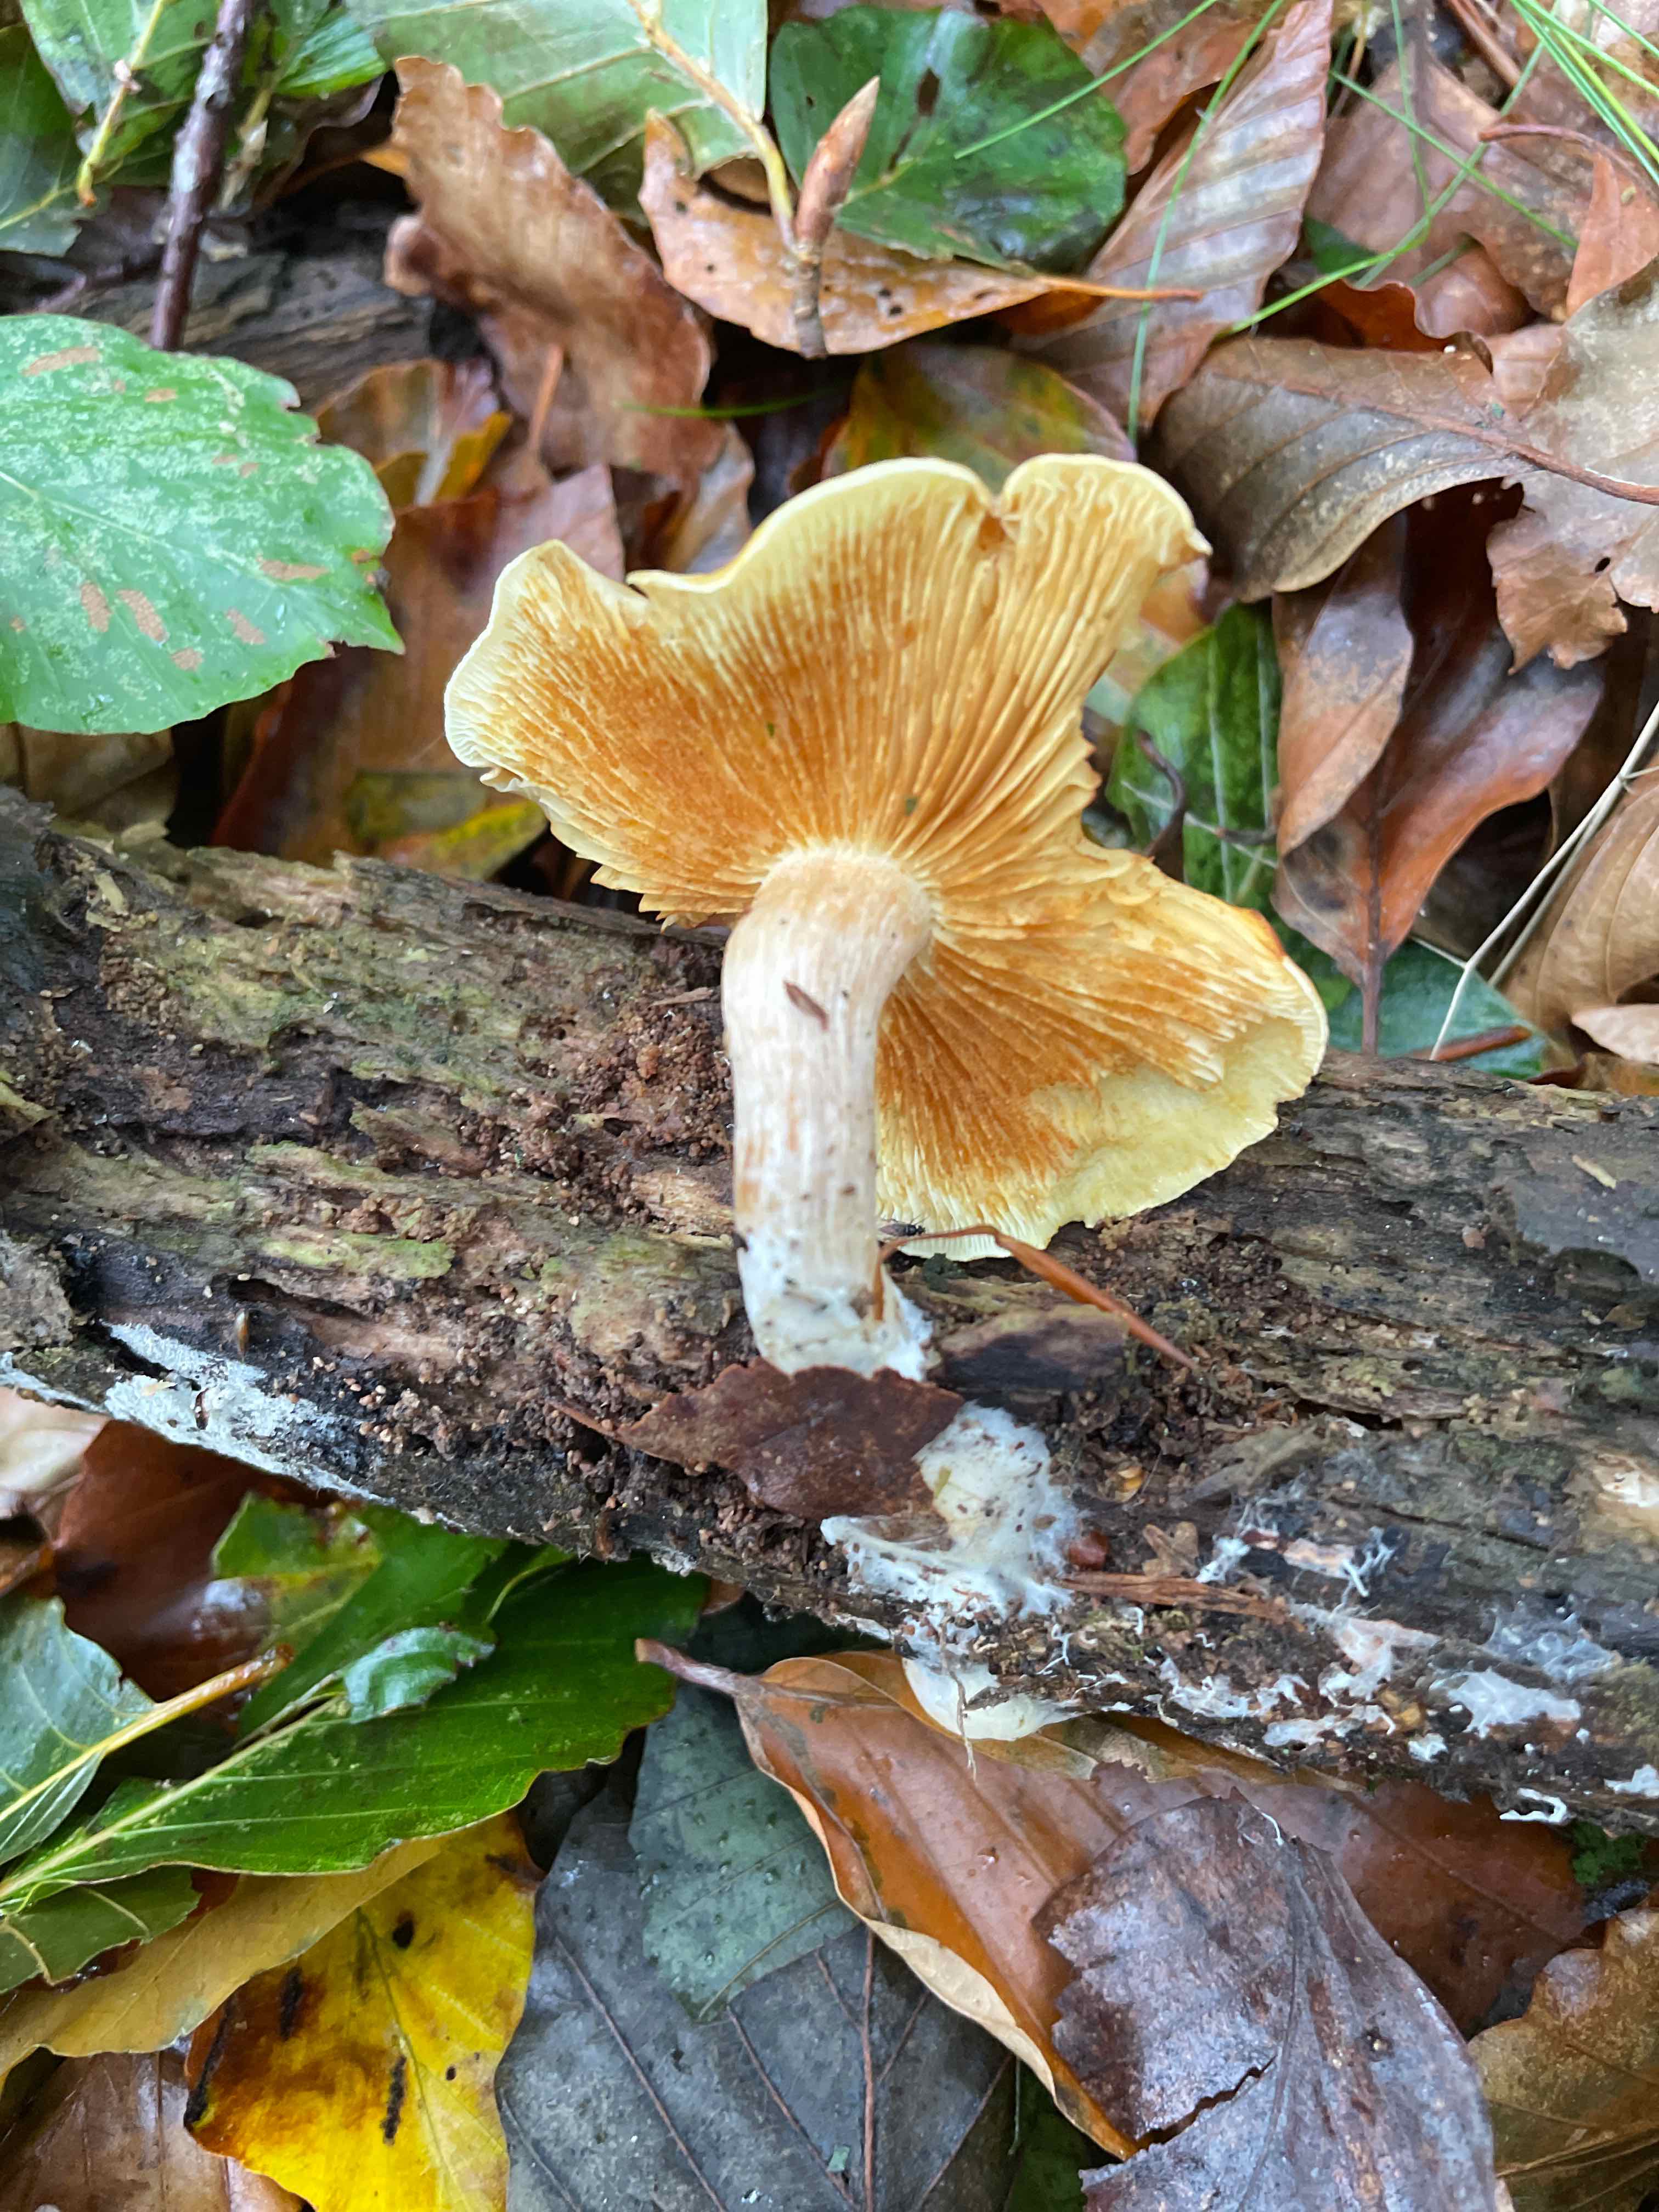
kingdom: Fungi
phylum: Basidiomycota
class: Agaricomycetes
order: Agaricales
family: Hymenogastraceae
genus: Gymnopilus
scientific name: Gymnopilus penetrans
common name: plettet flammehat
